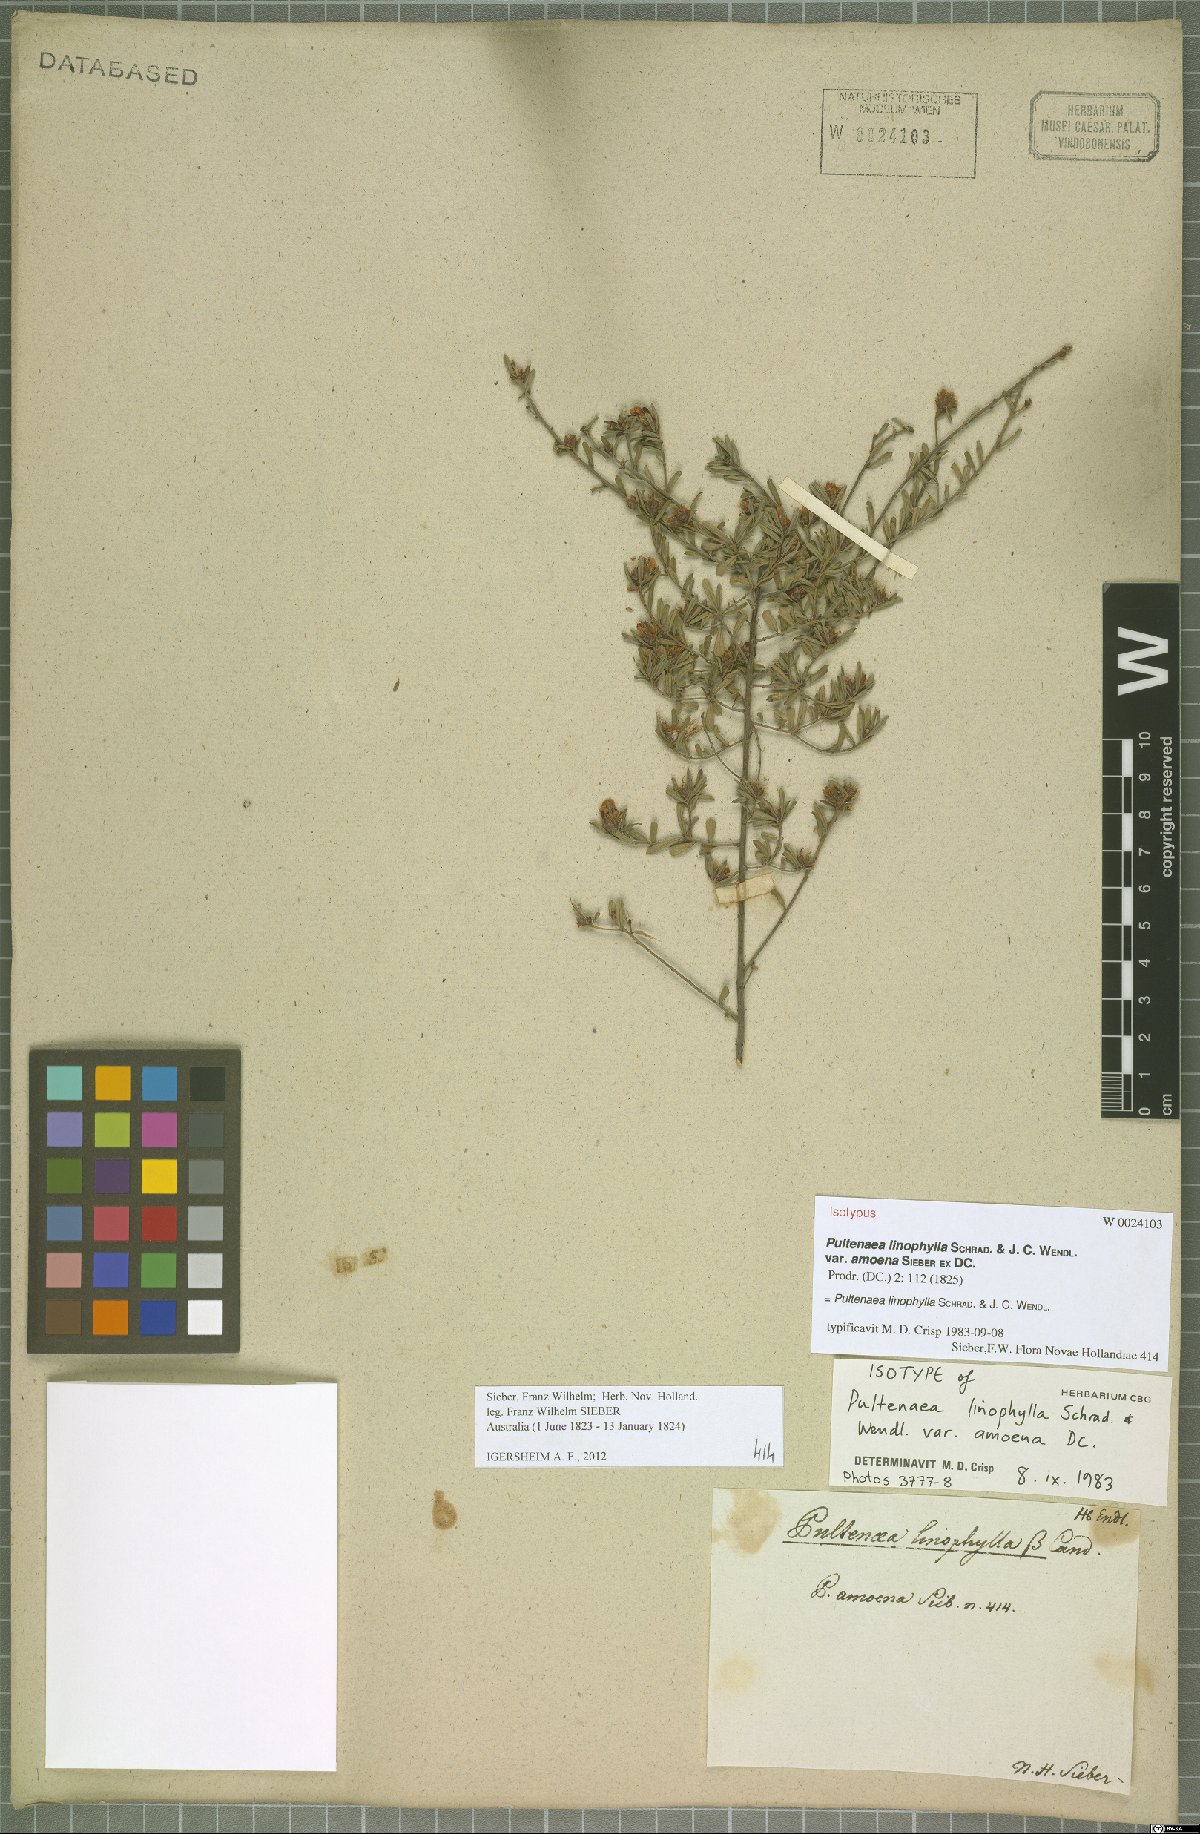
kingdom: Plantae
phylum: Tracheophyta
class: Magnoliopsida
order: Fabales
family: Fabaceae
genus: Pultenaea
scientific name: Pultenaea linophylla
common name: Halo bush-pea
